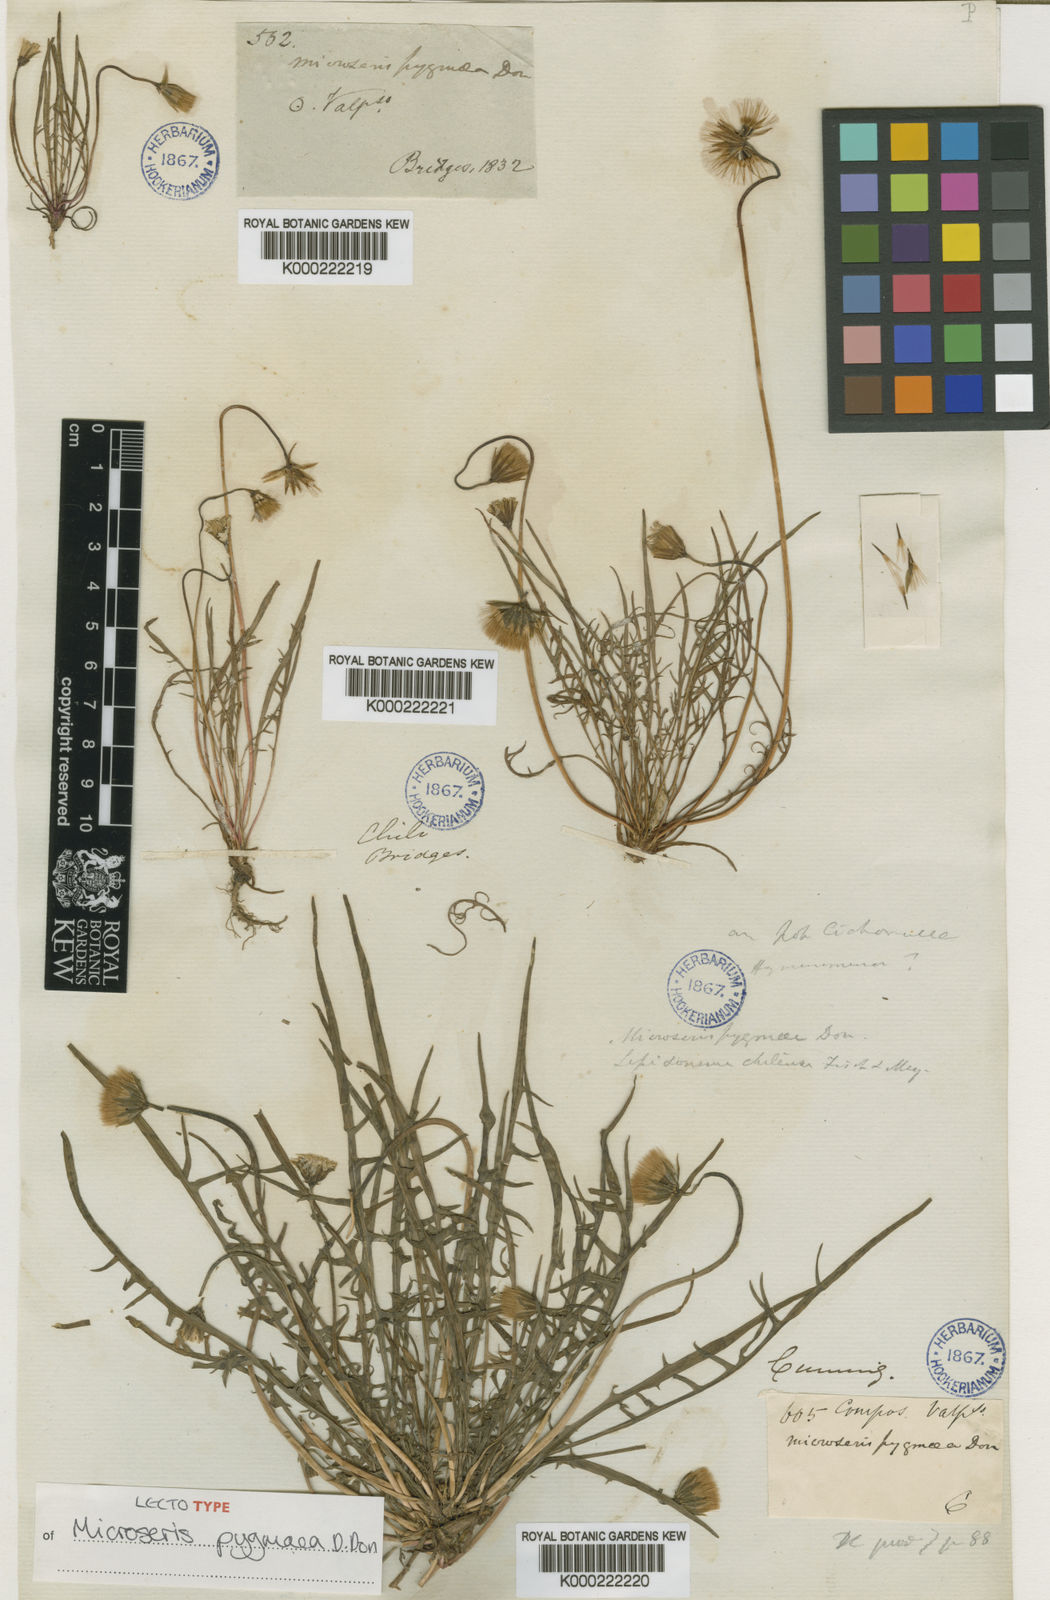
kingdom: Plantae
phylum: Tracheophyta
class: Magnoliopsida
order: Asterales
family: Asteraceae
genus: Microseris
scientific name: Microseris pygmaea
